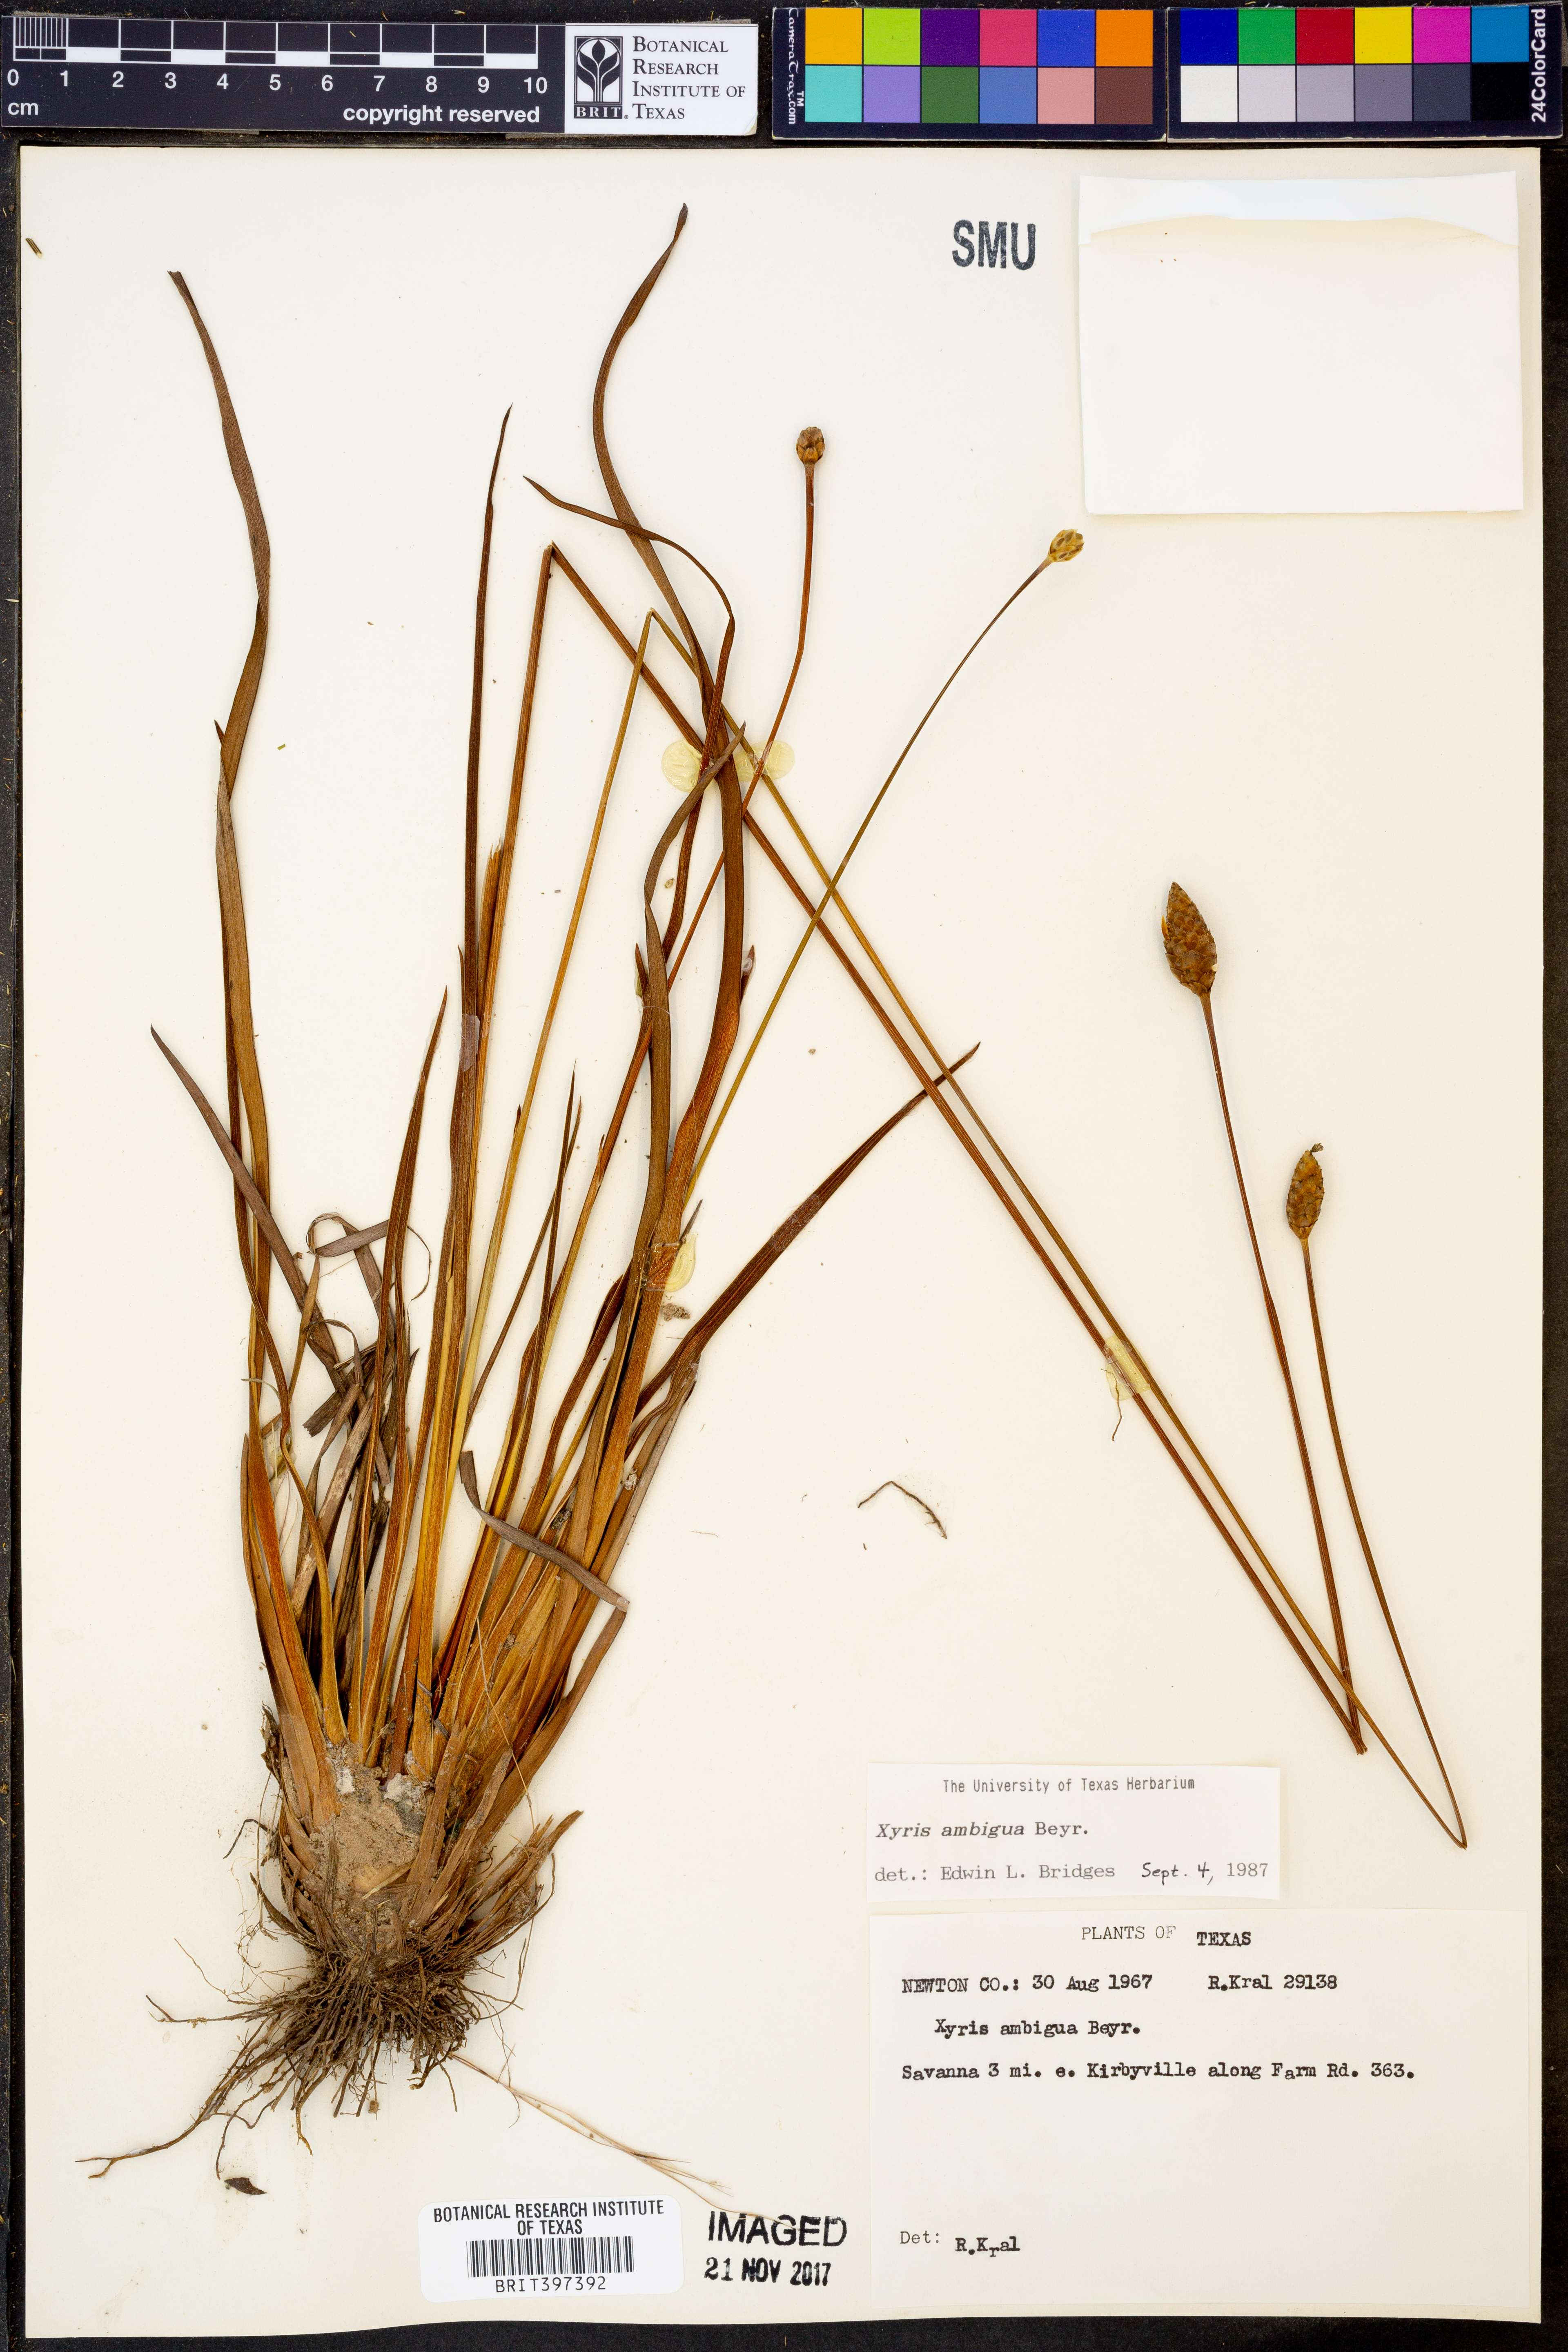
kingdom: Plantae
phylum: Tracheophyta
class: Liliopsida
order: Poales
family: Xyridaceae
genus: Xyris
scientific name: Xyris ambigua
